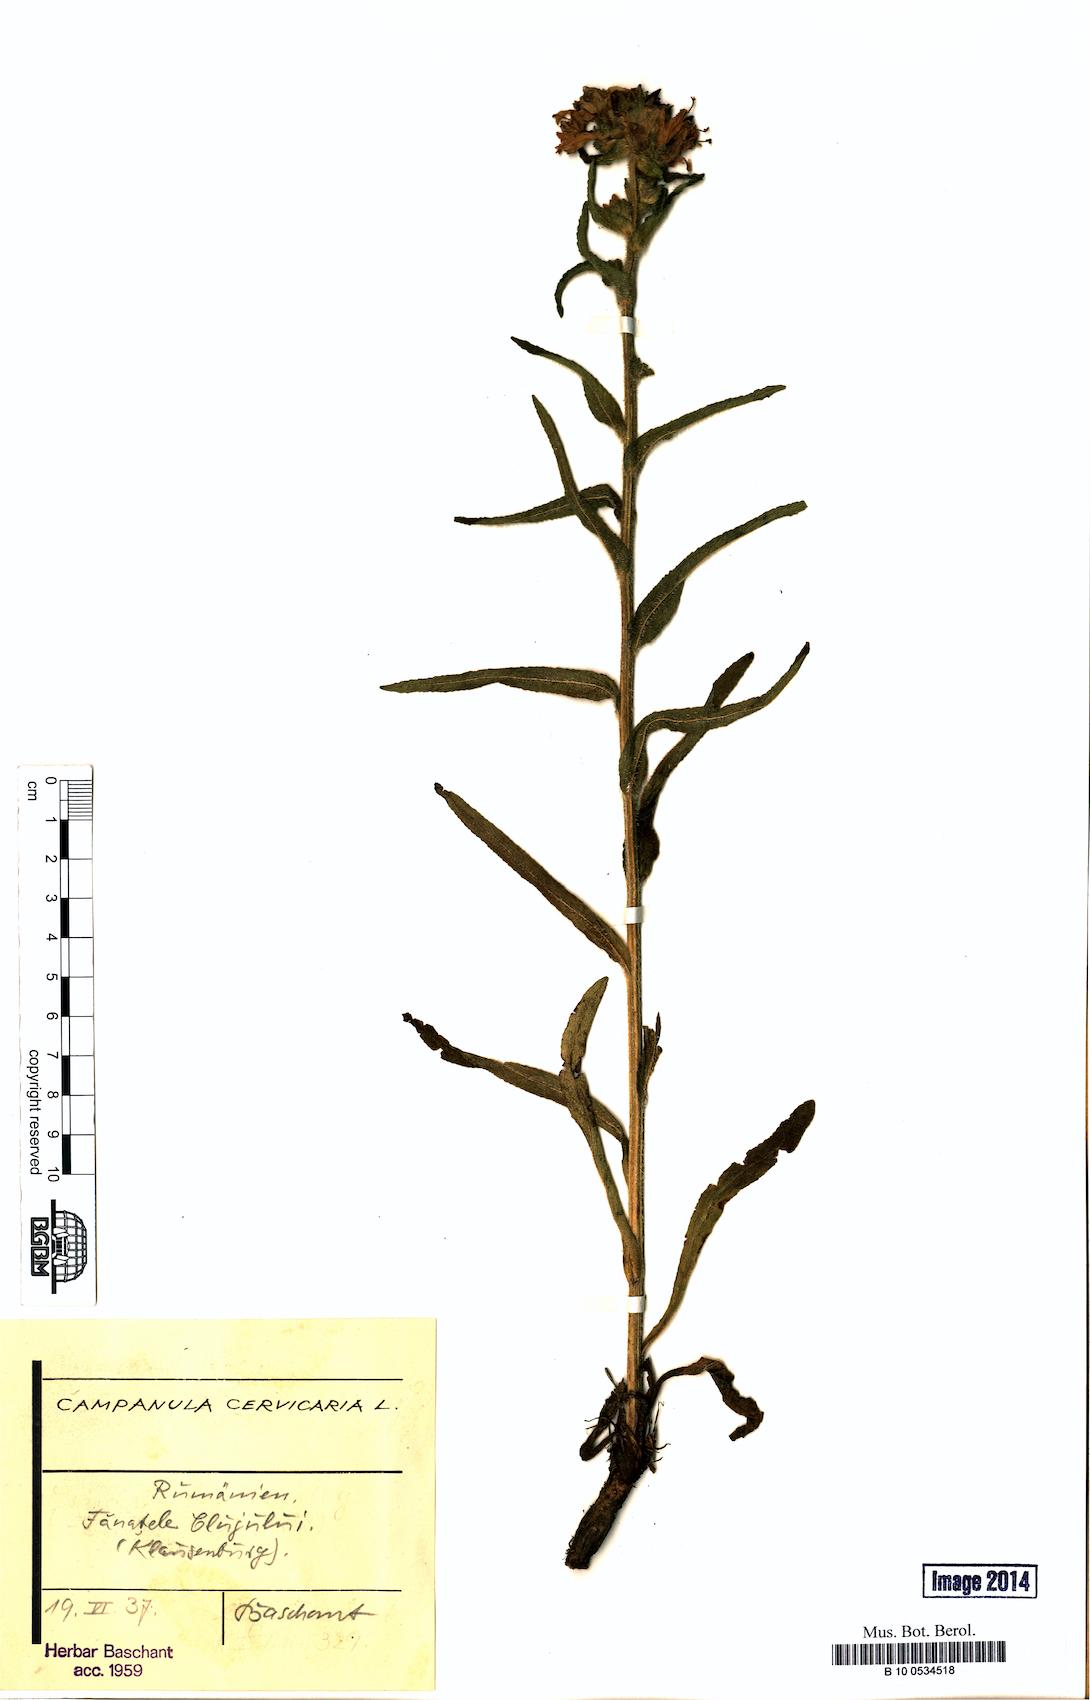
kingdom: Plantae
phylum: Tracheophyta
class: Magnoliopsida
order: Asterales
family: Campanulaceae
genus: Campanula
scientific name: Campanula cervicaria
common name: Bristly bellflower
